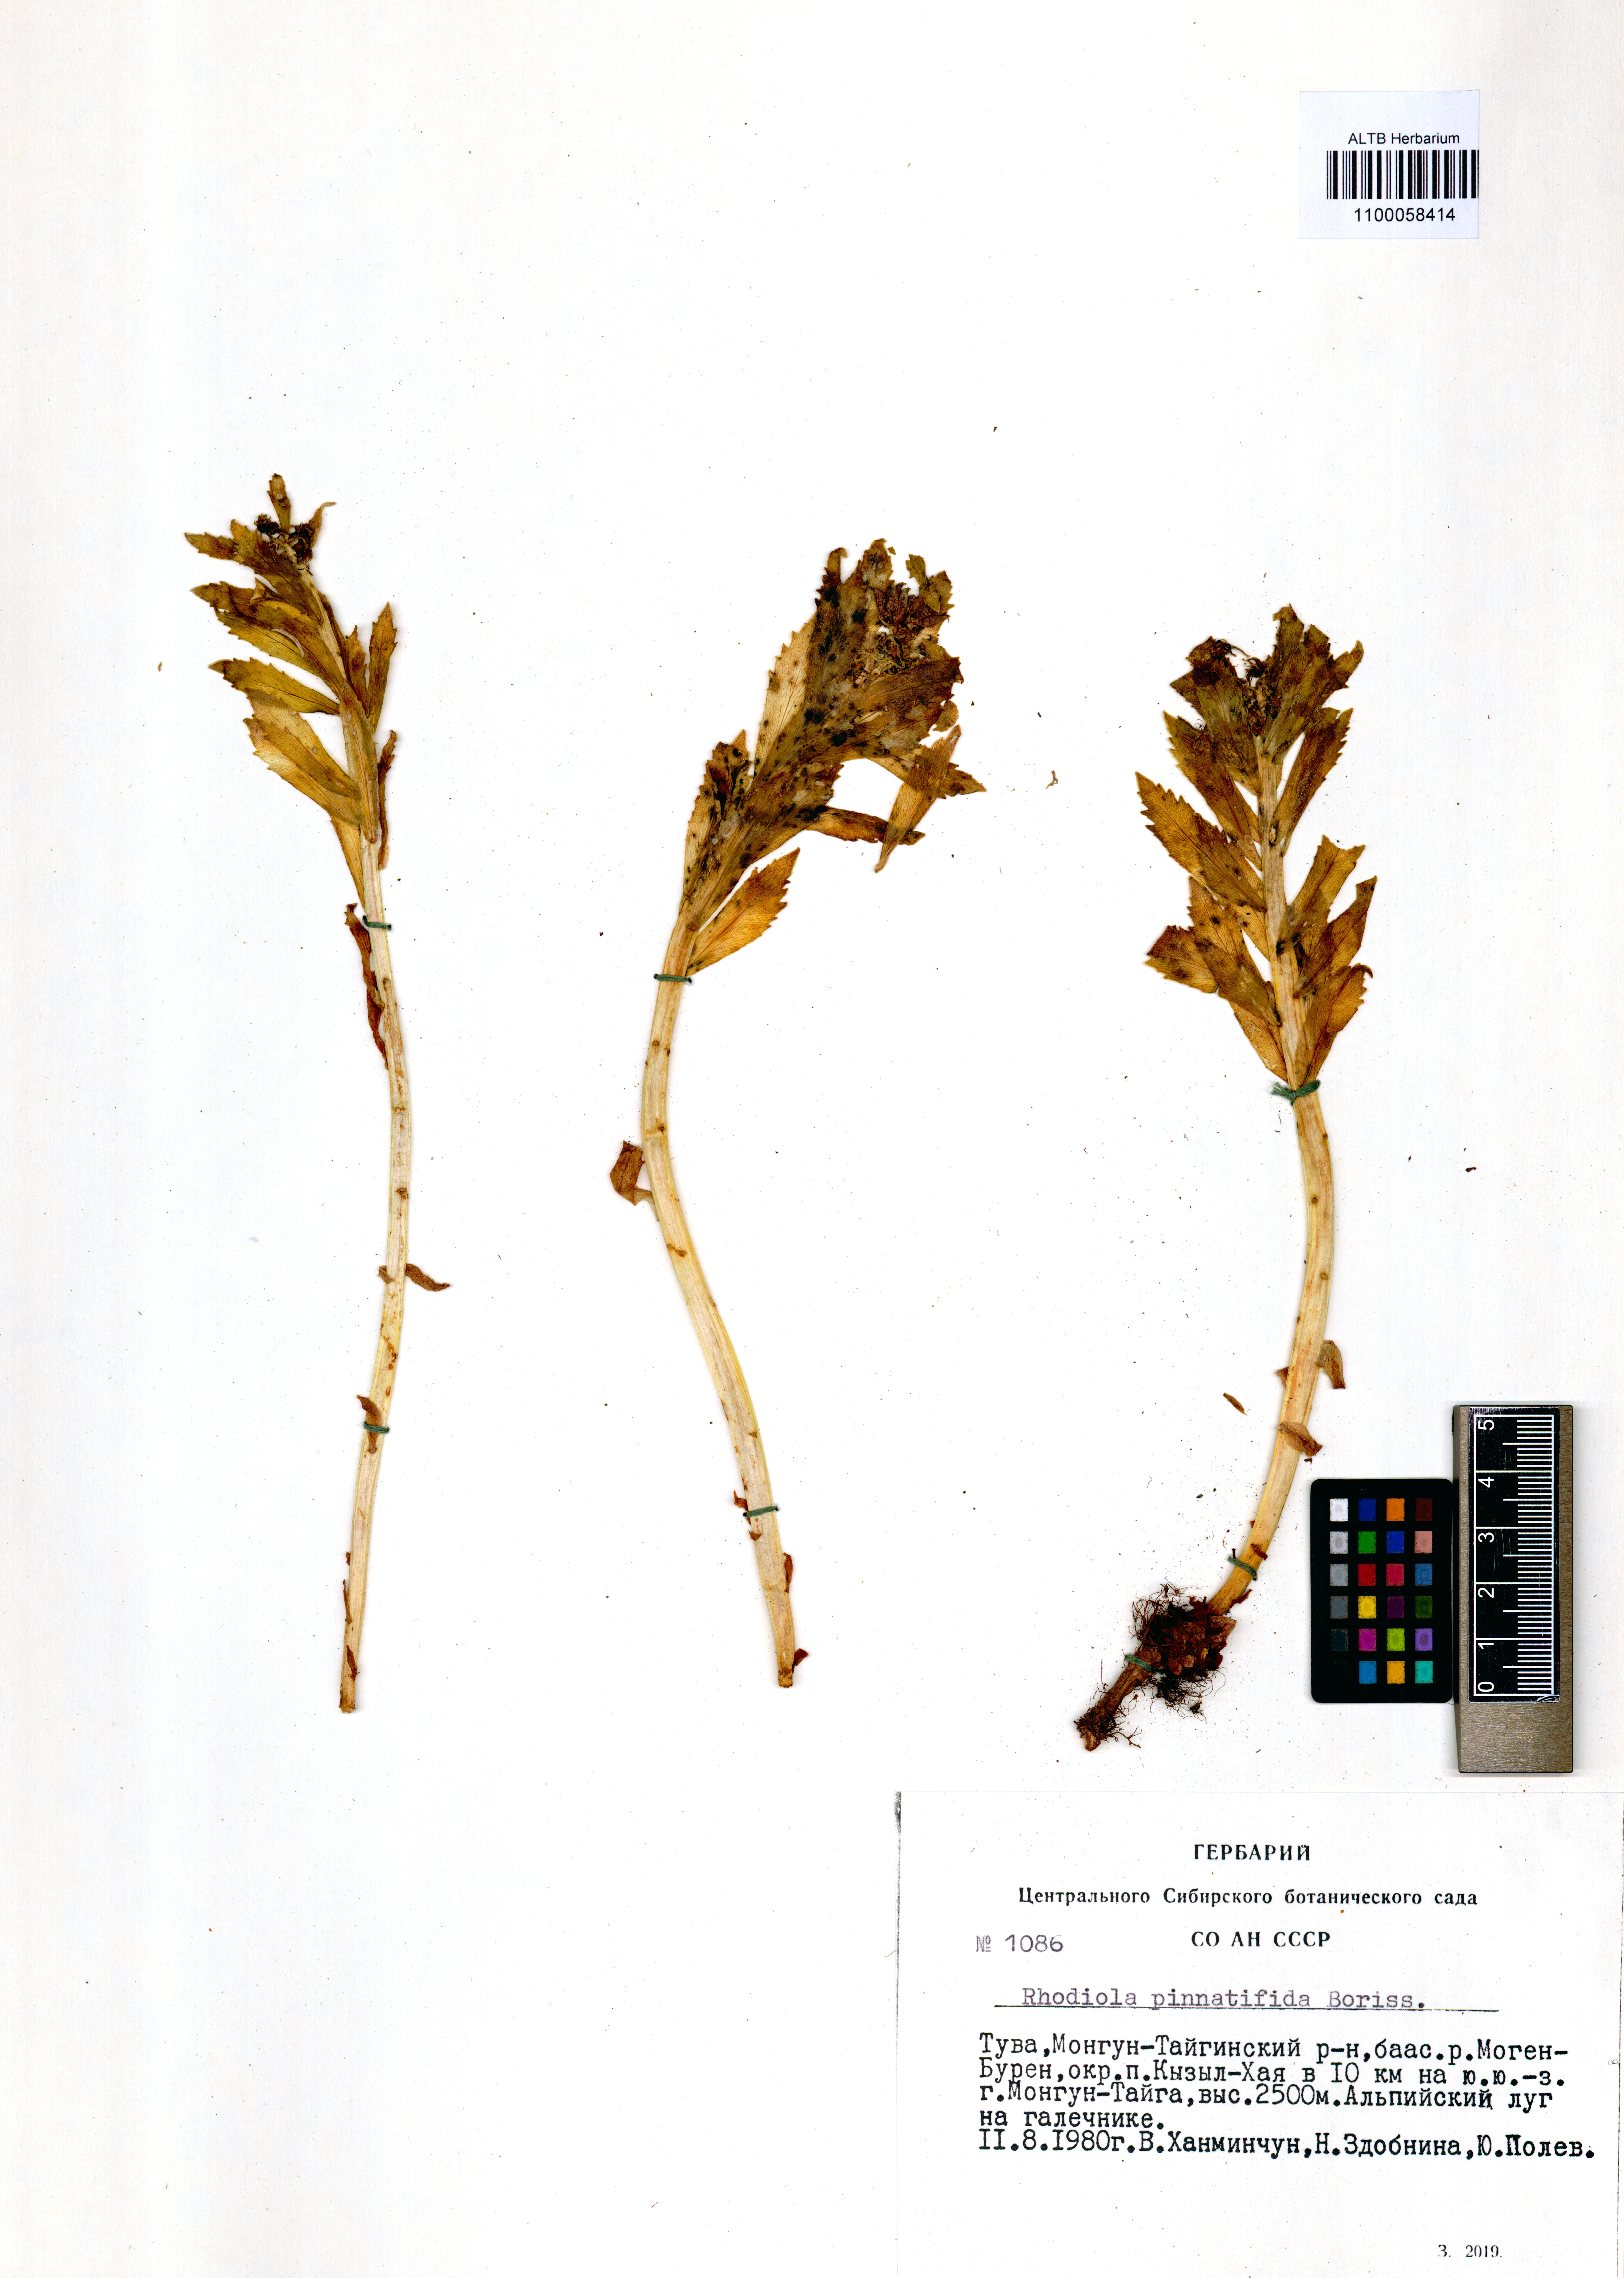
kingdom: Plantae
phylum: Tracheophyta
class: Magnoliopsida
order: Saxifragales
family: Crassulaceae
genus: Rhodiola
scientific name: Rhodiola stephani
